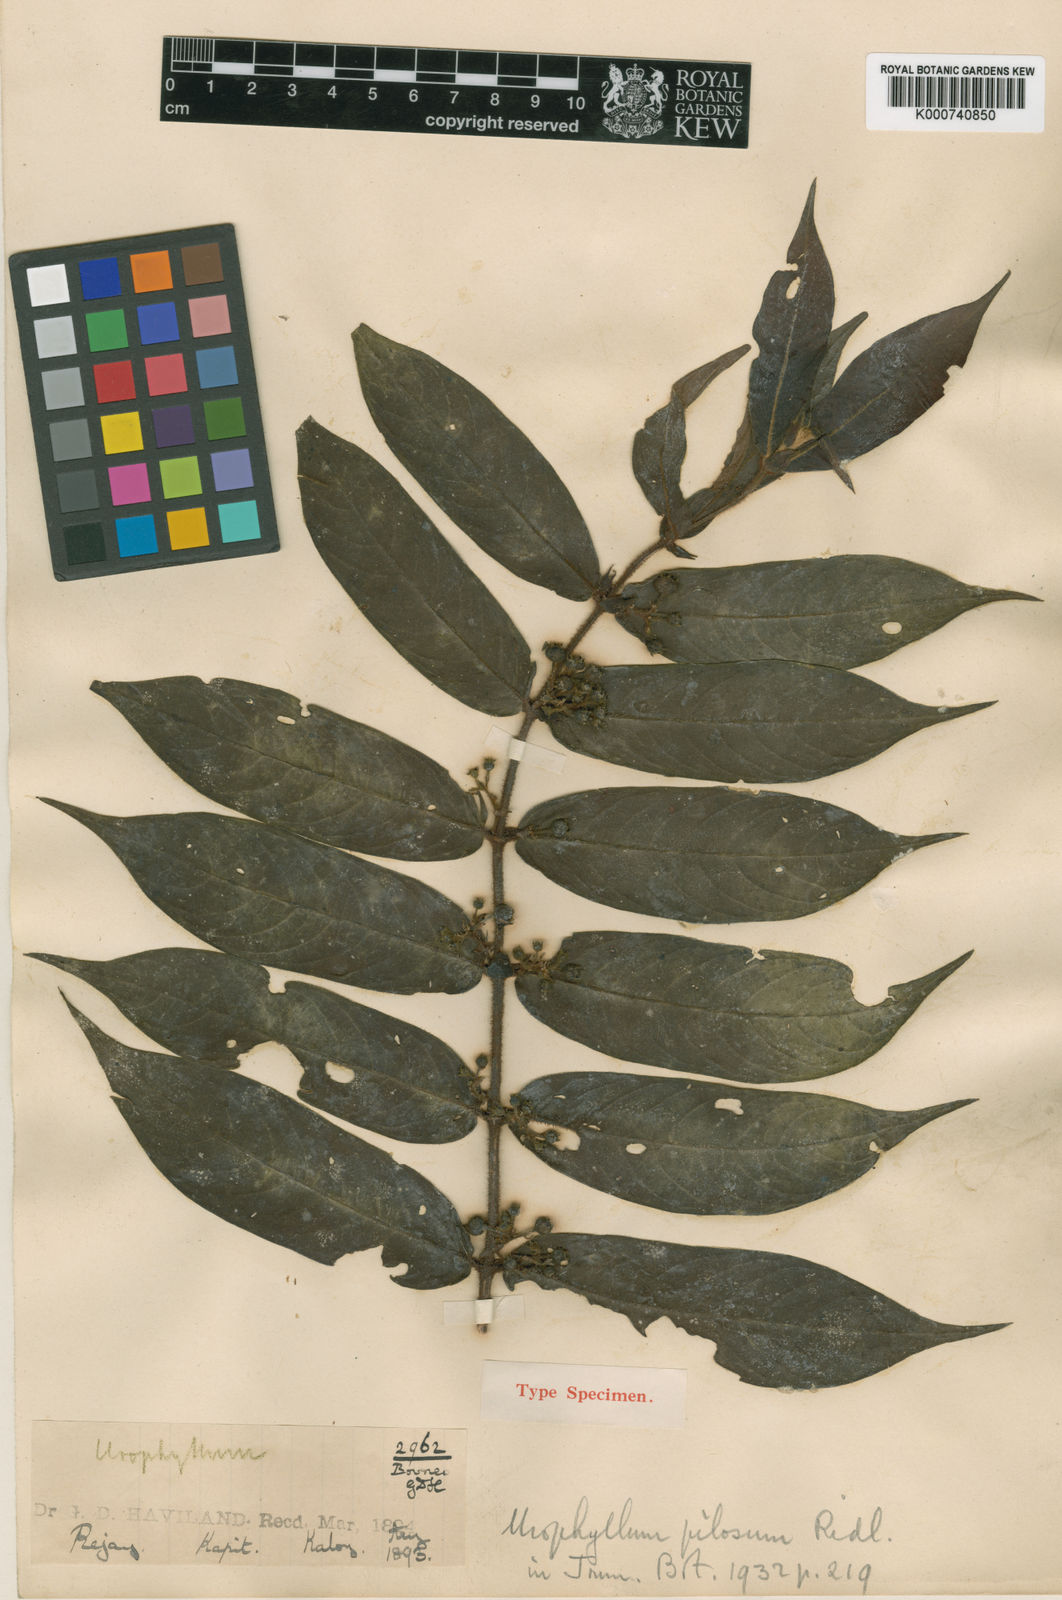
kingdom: Plantae
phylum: Tracheophyta
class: Magnoliopsida
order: Gentianales
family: Rubiaceae
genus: Urophyllum
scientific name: Urophyllum pilosum
